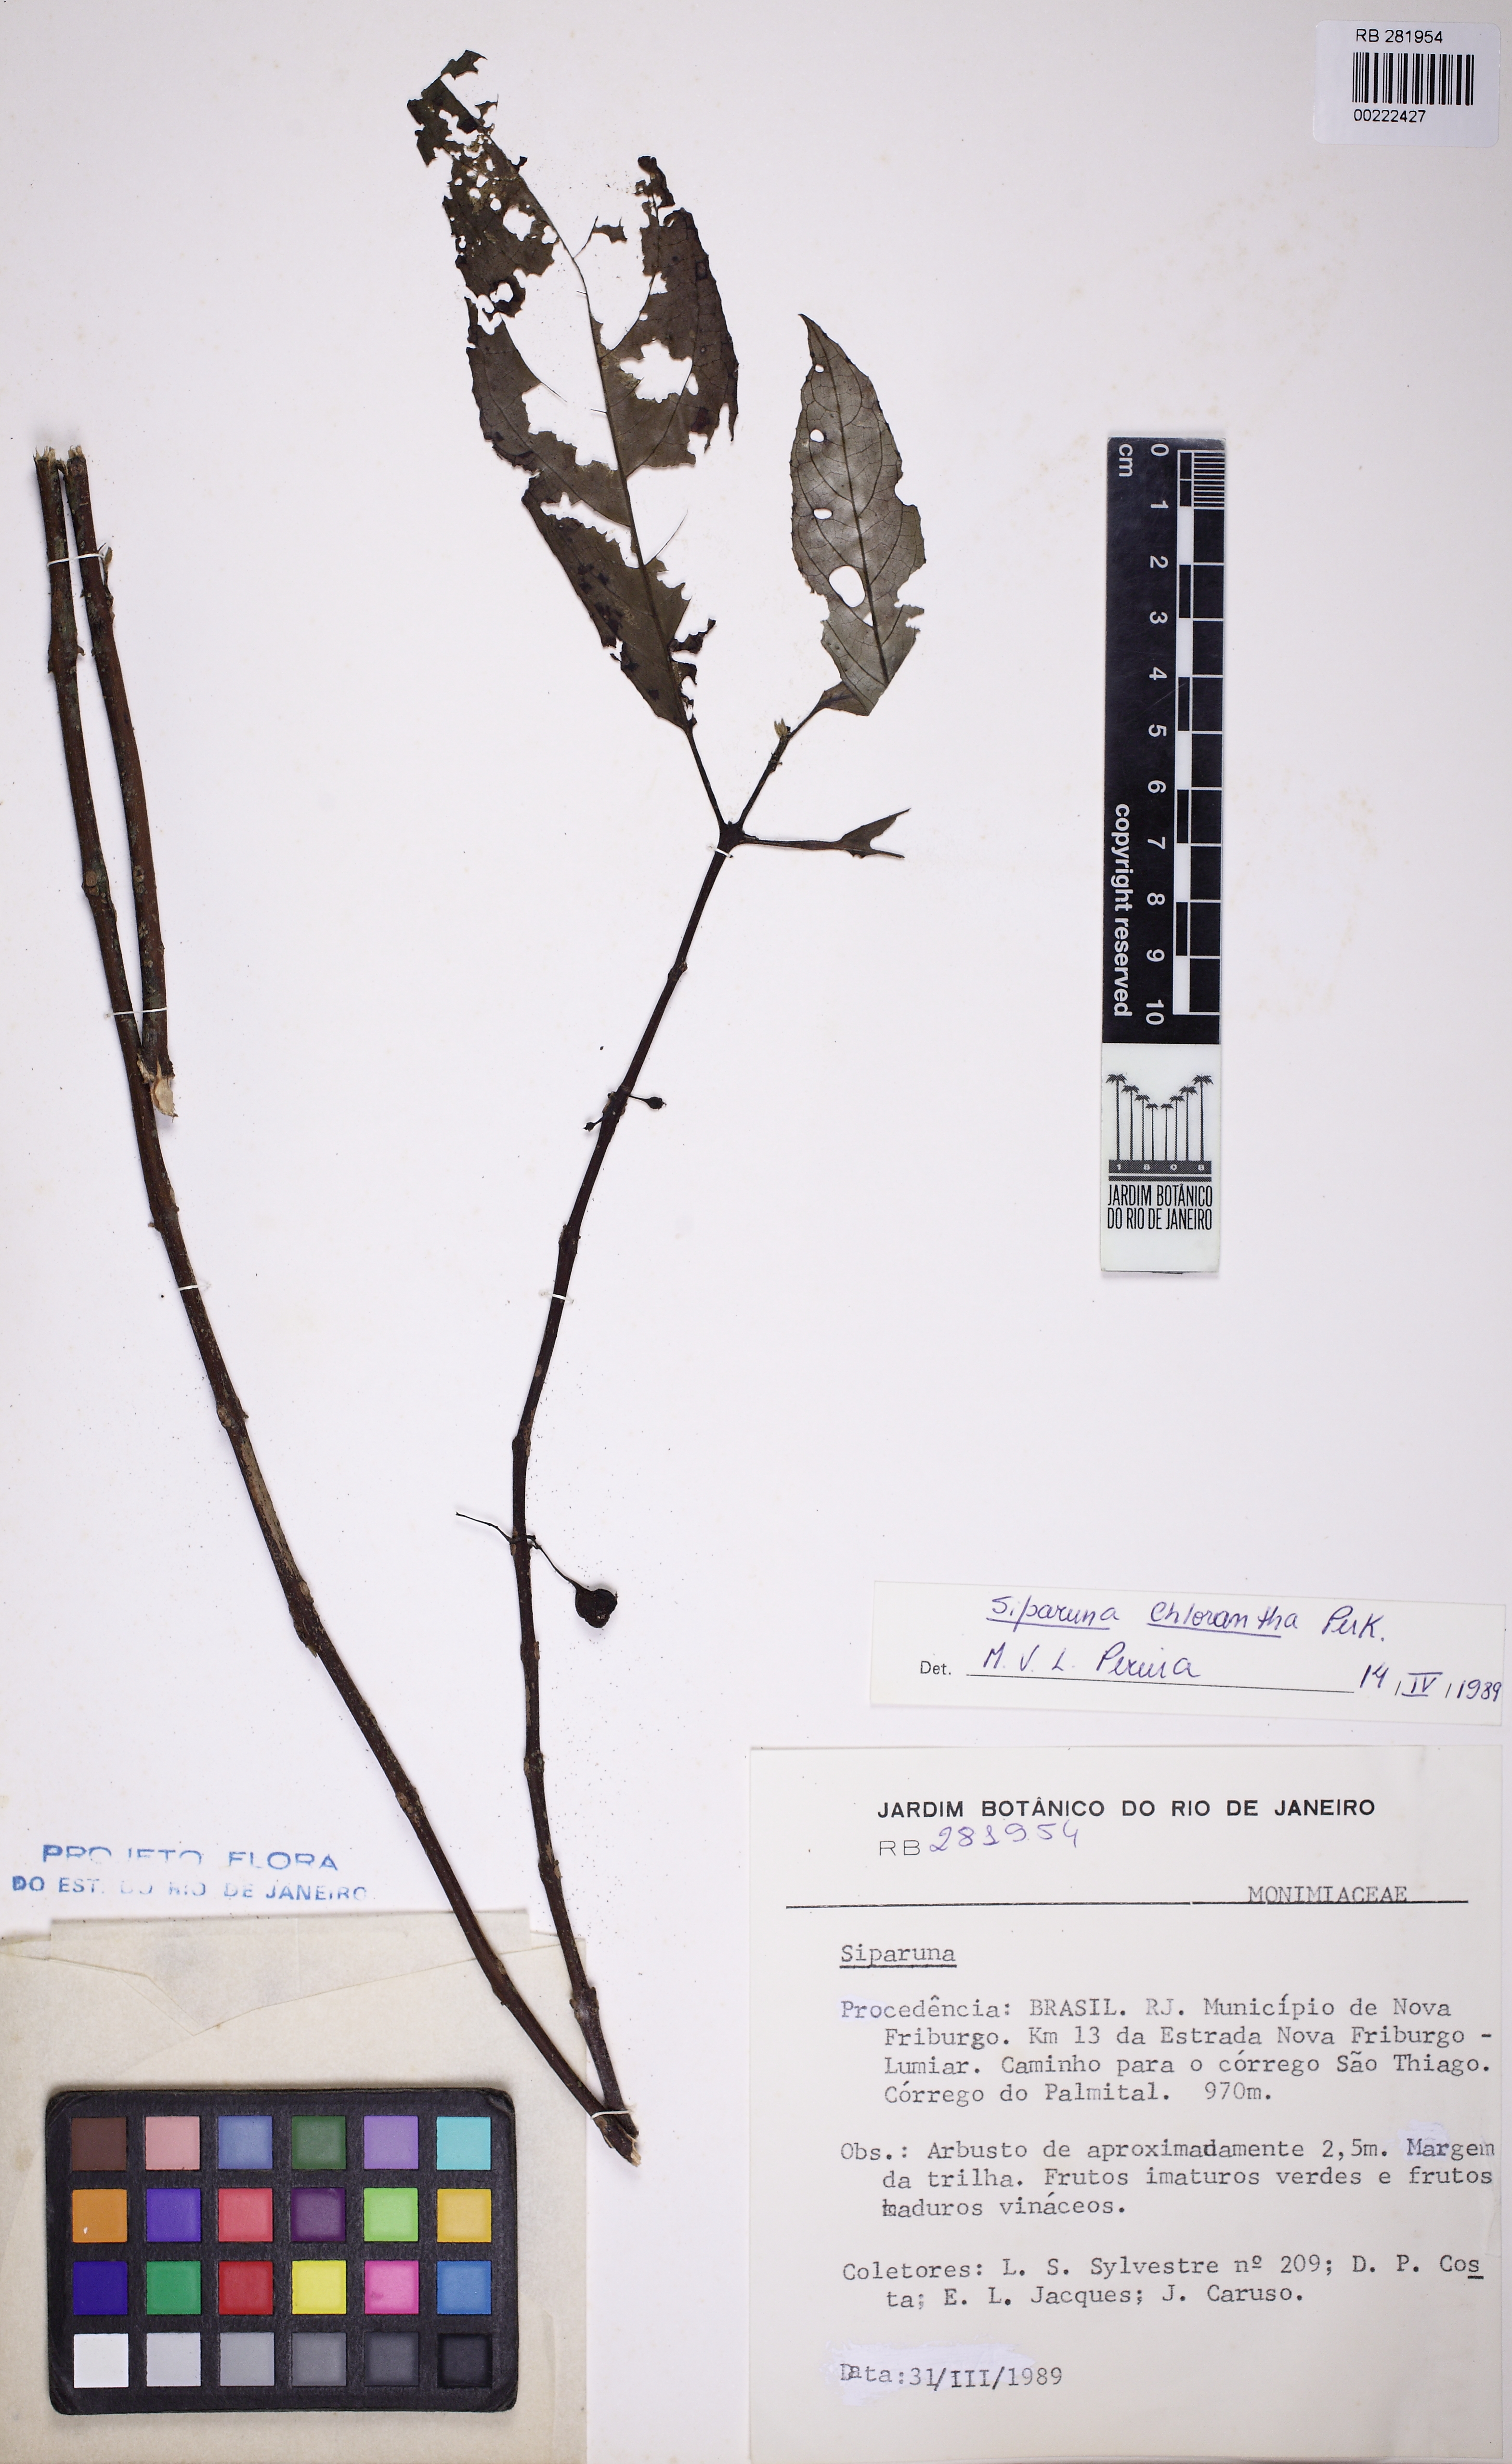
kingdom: Plantae
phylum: Tracheophyta
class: Magnoliopsida
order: Laurales
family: Siparunaceae
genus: Siparuna
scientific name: Siparuna brasiliensis
